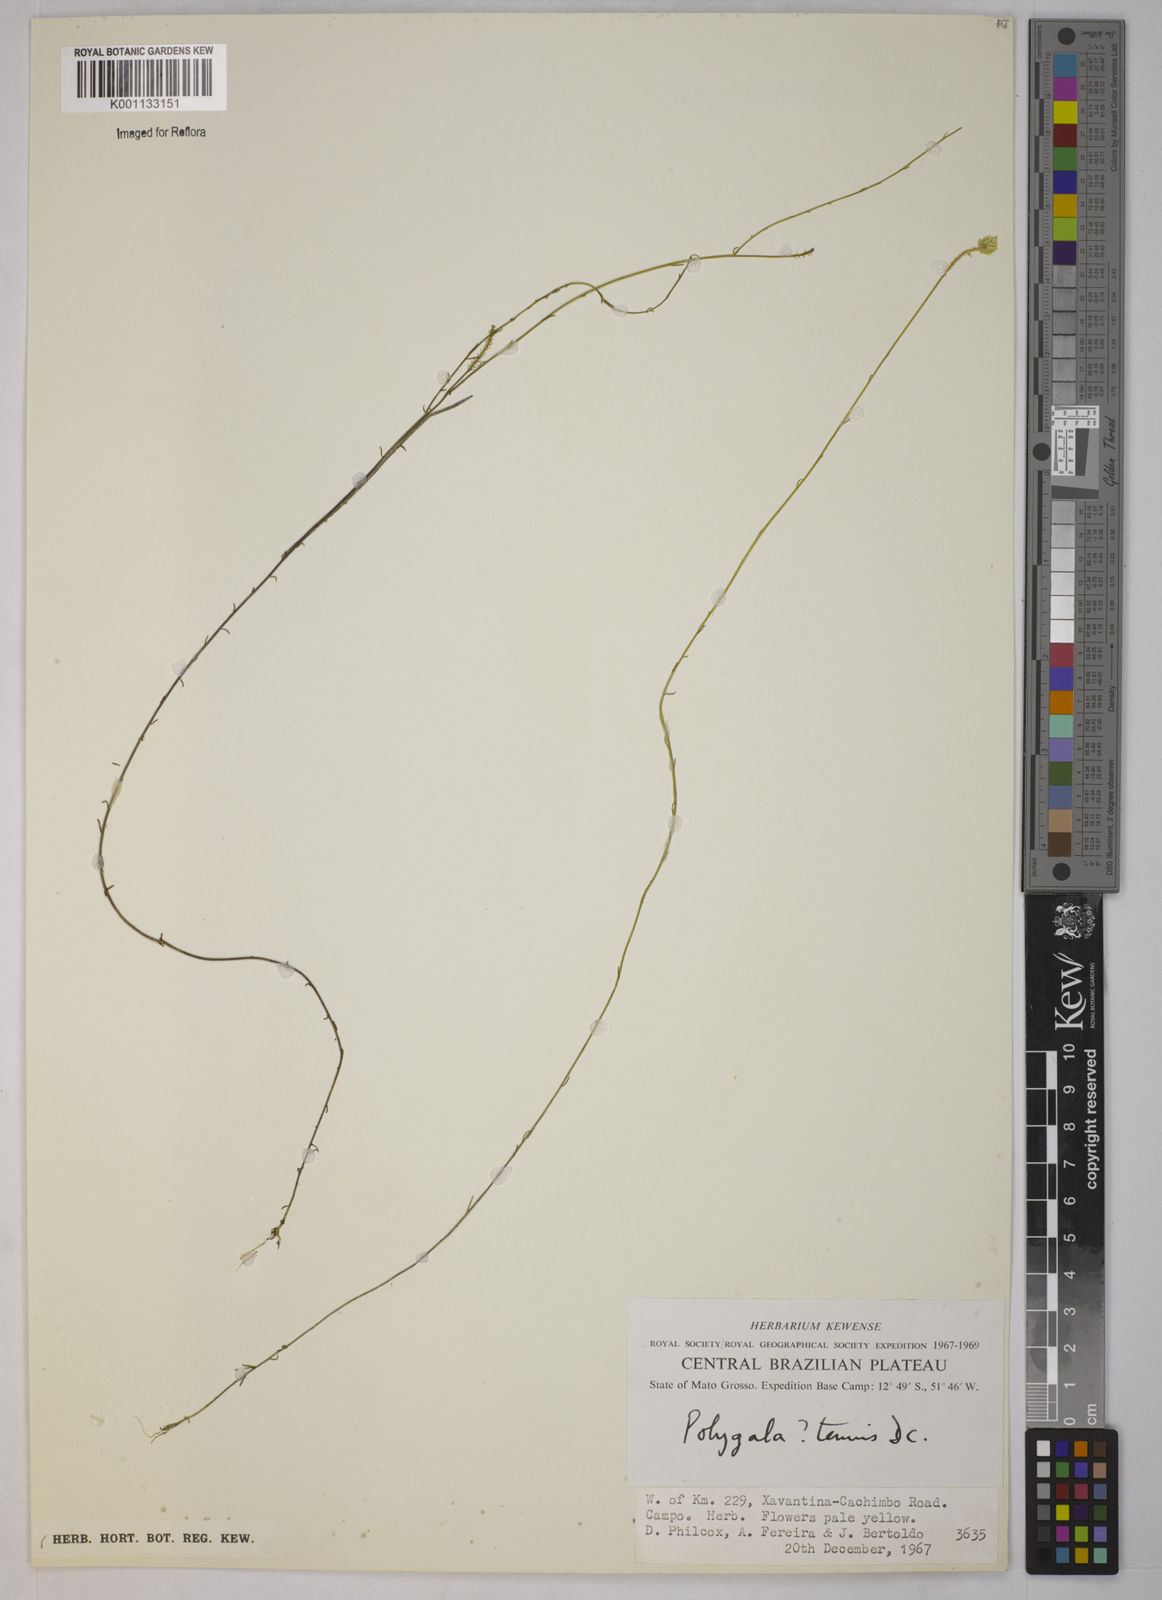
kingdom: Plantae
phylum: Tracheophyta
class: Magnoliopsida
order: Fabales
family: Polygalaceae
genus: Polygala
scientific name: Polygala tenuis
